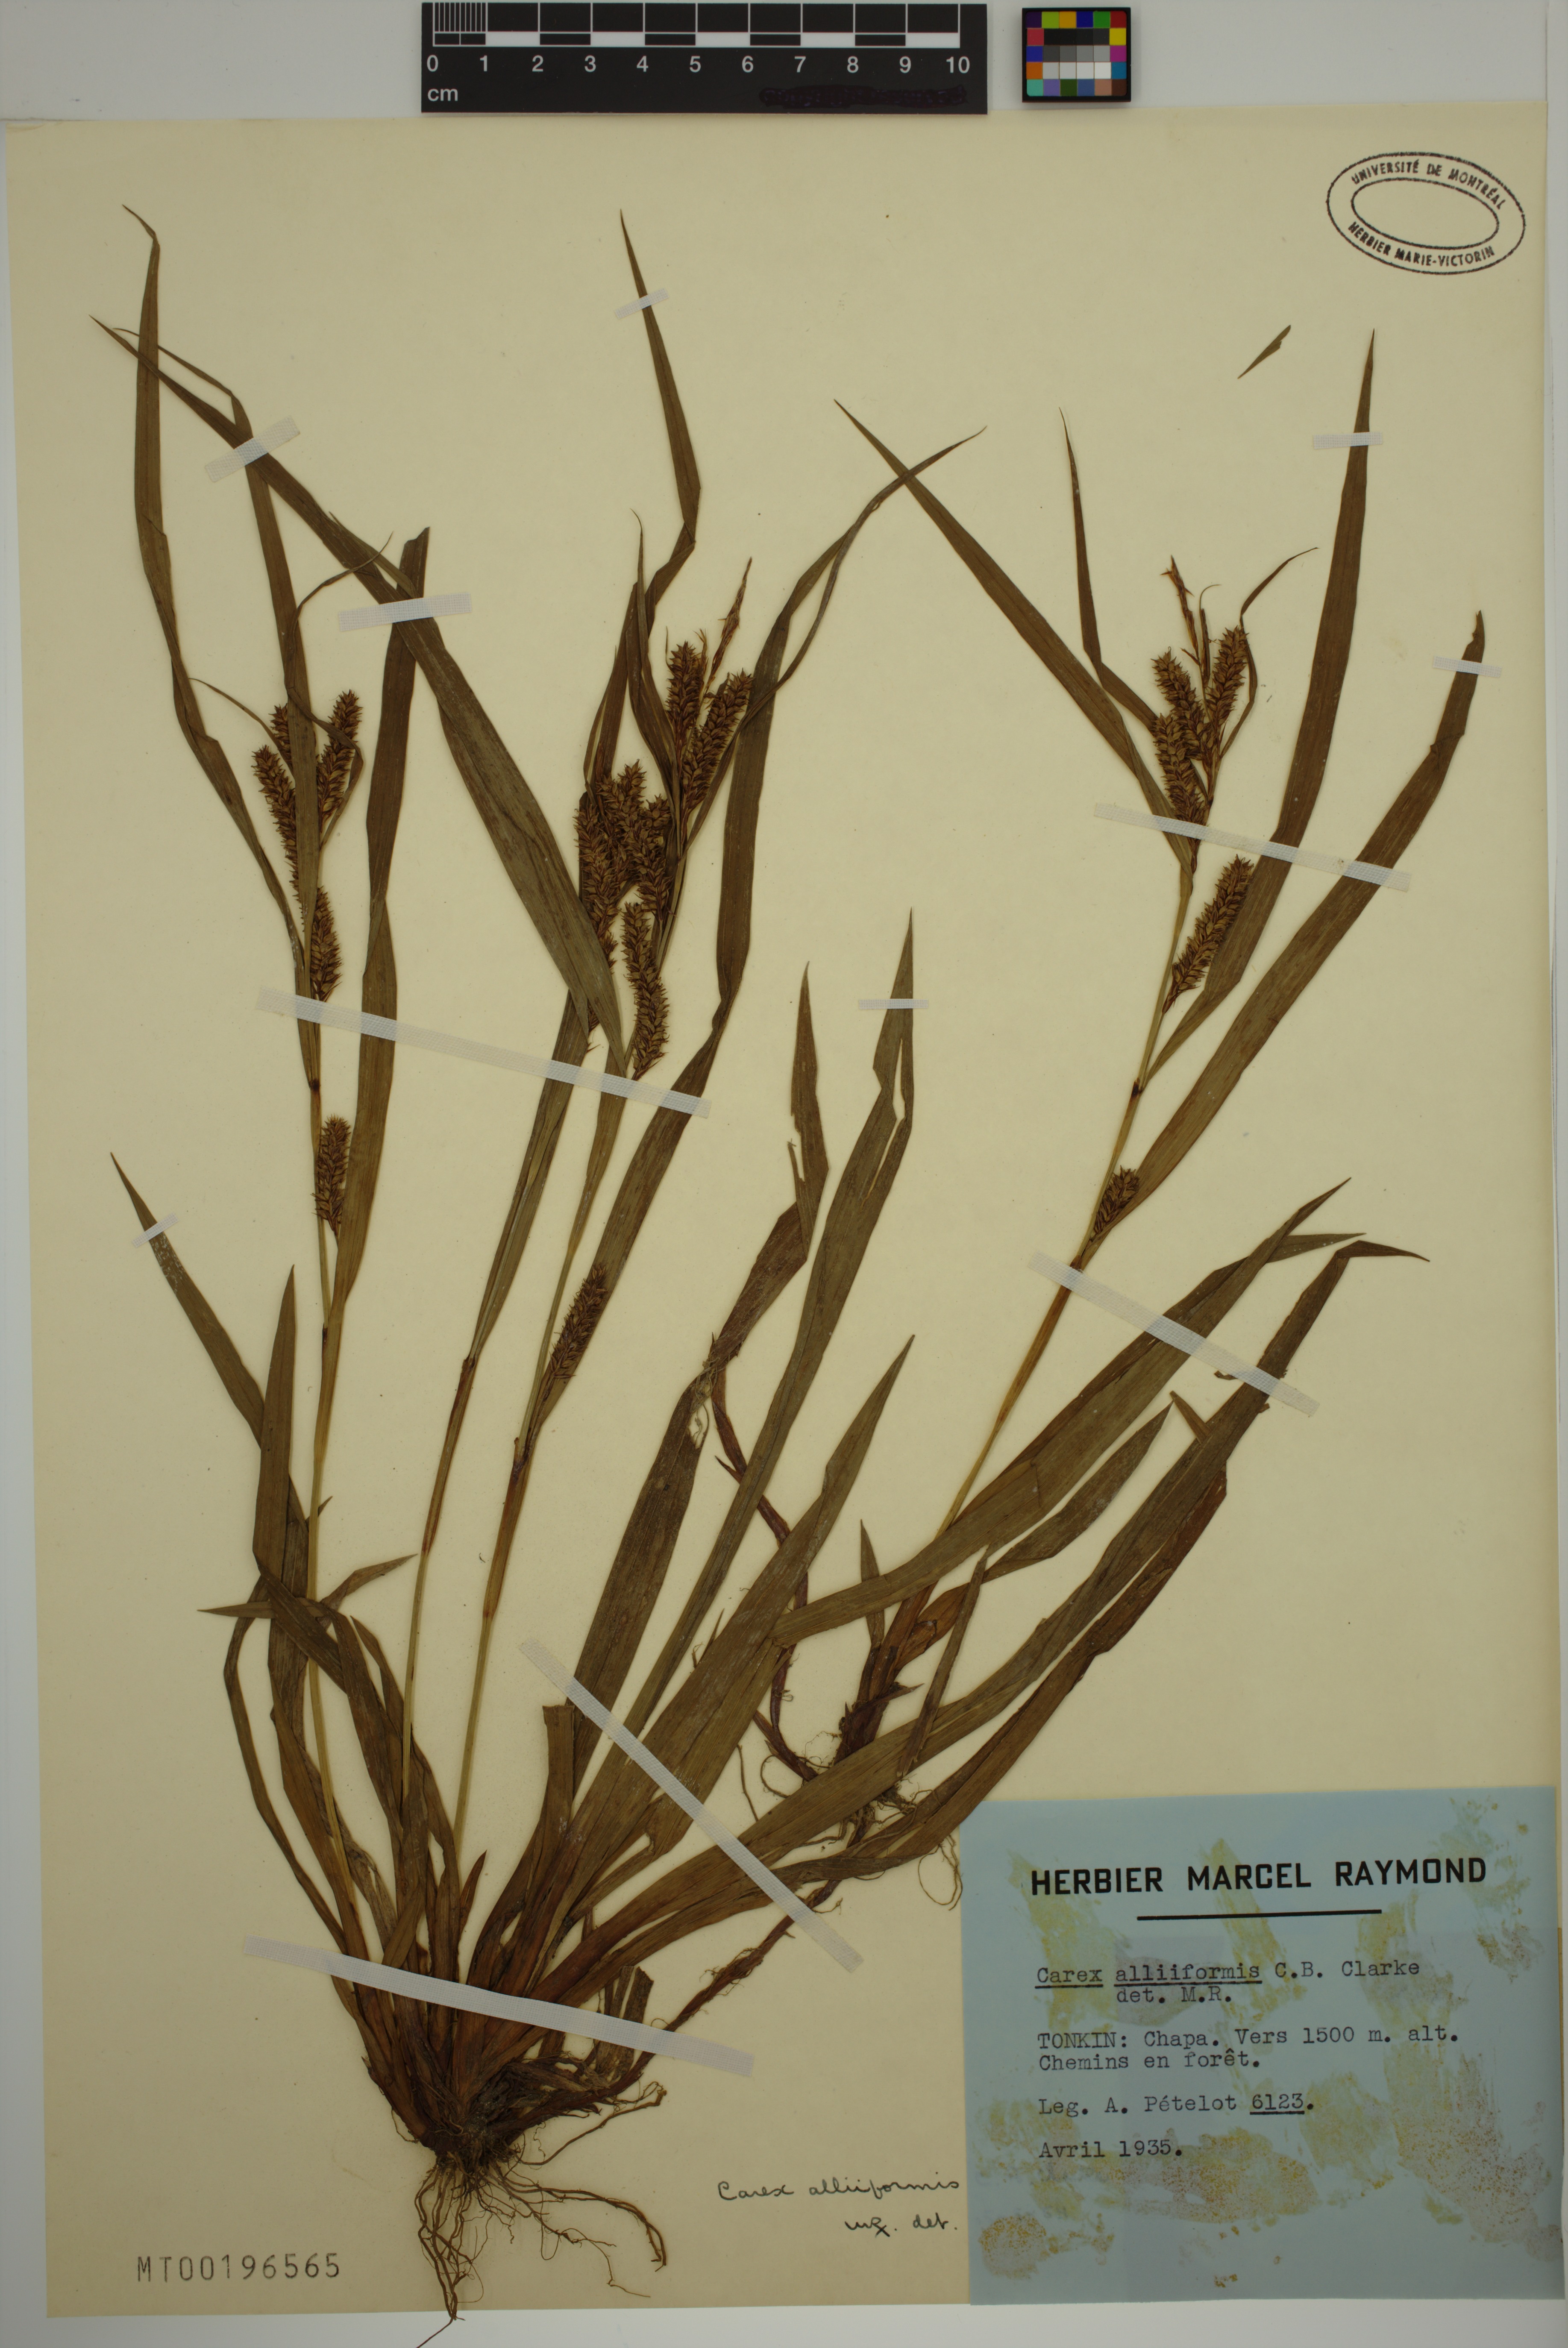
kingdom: Plantae
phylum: Tracheophyta
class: Liliopsida
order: Poales
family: Cyperaceae
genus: Carex
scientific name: Carex alliiformis
